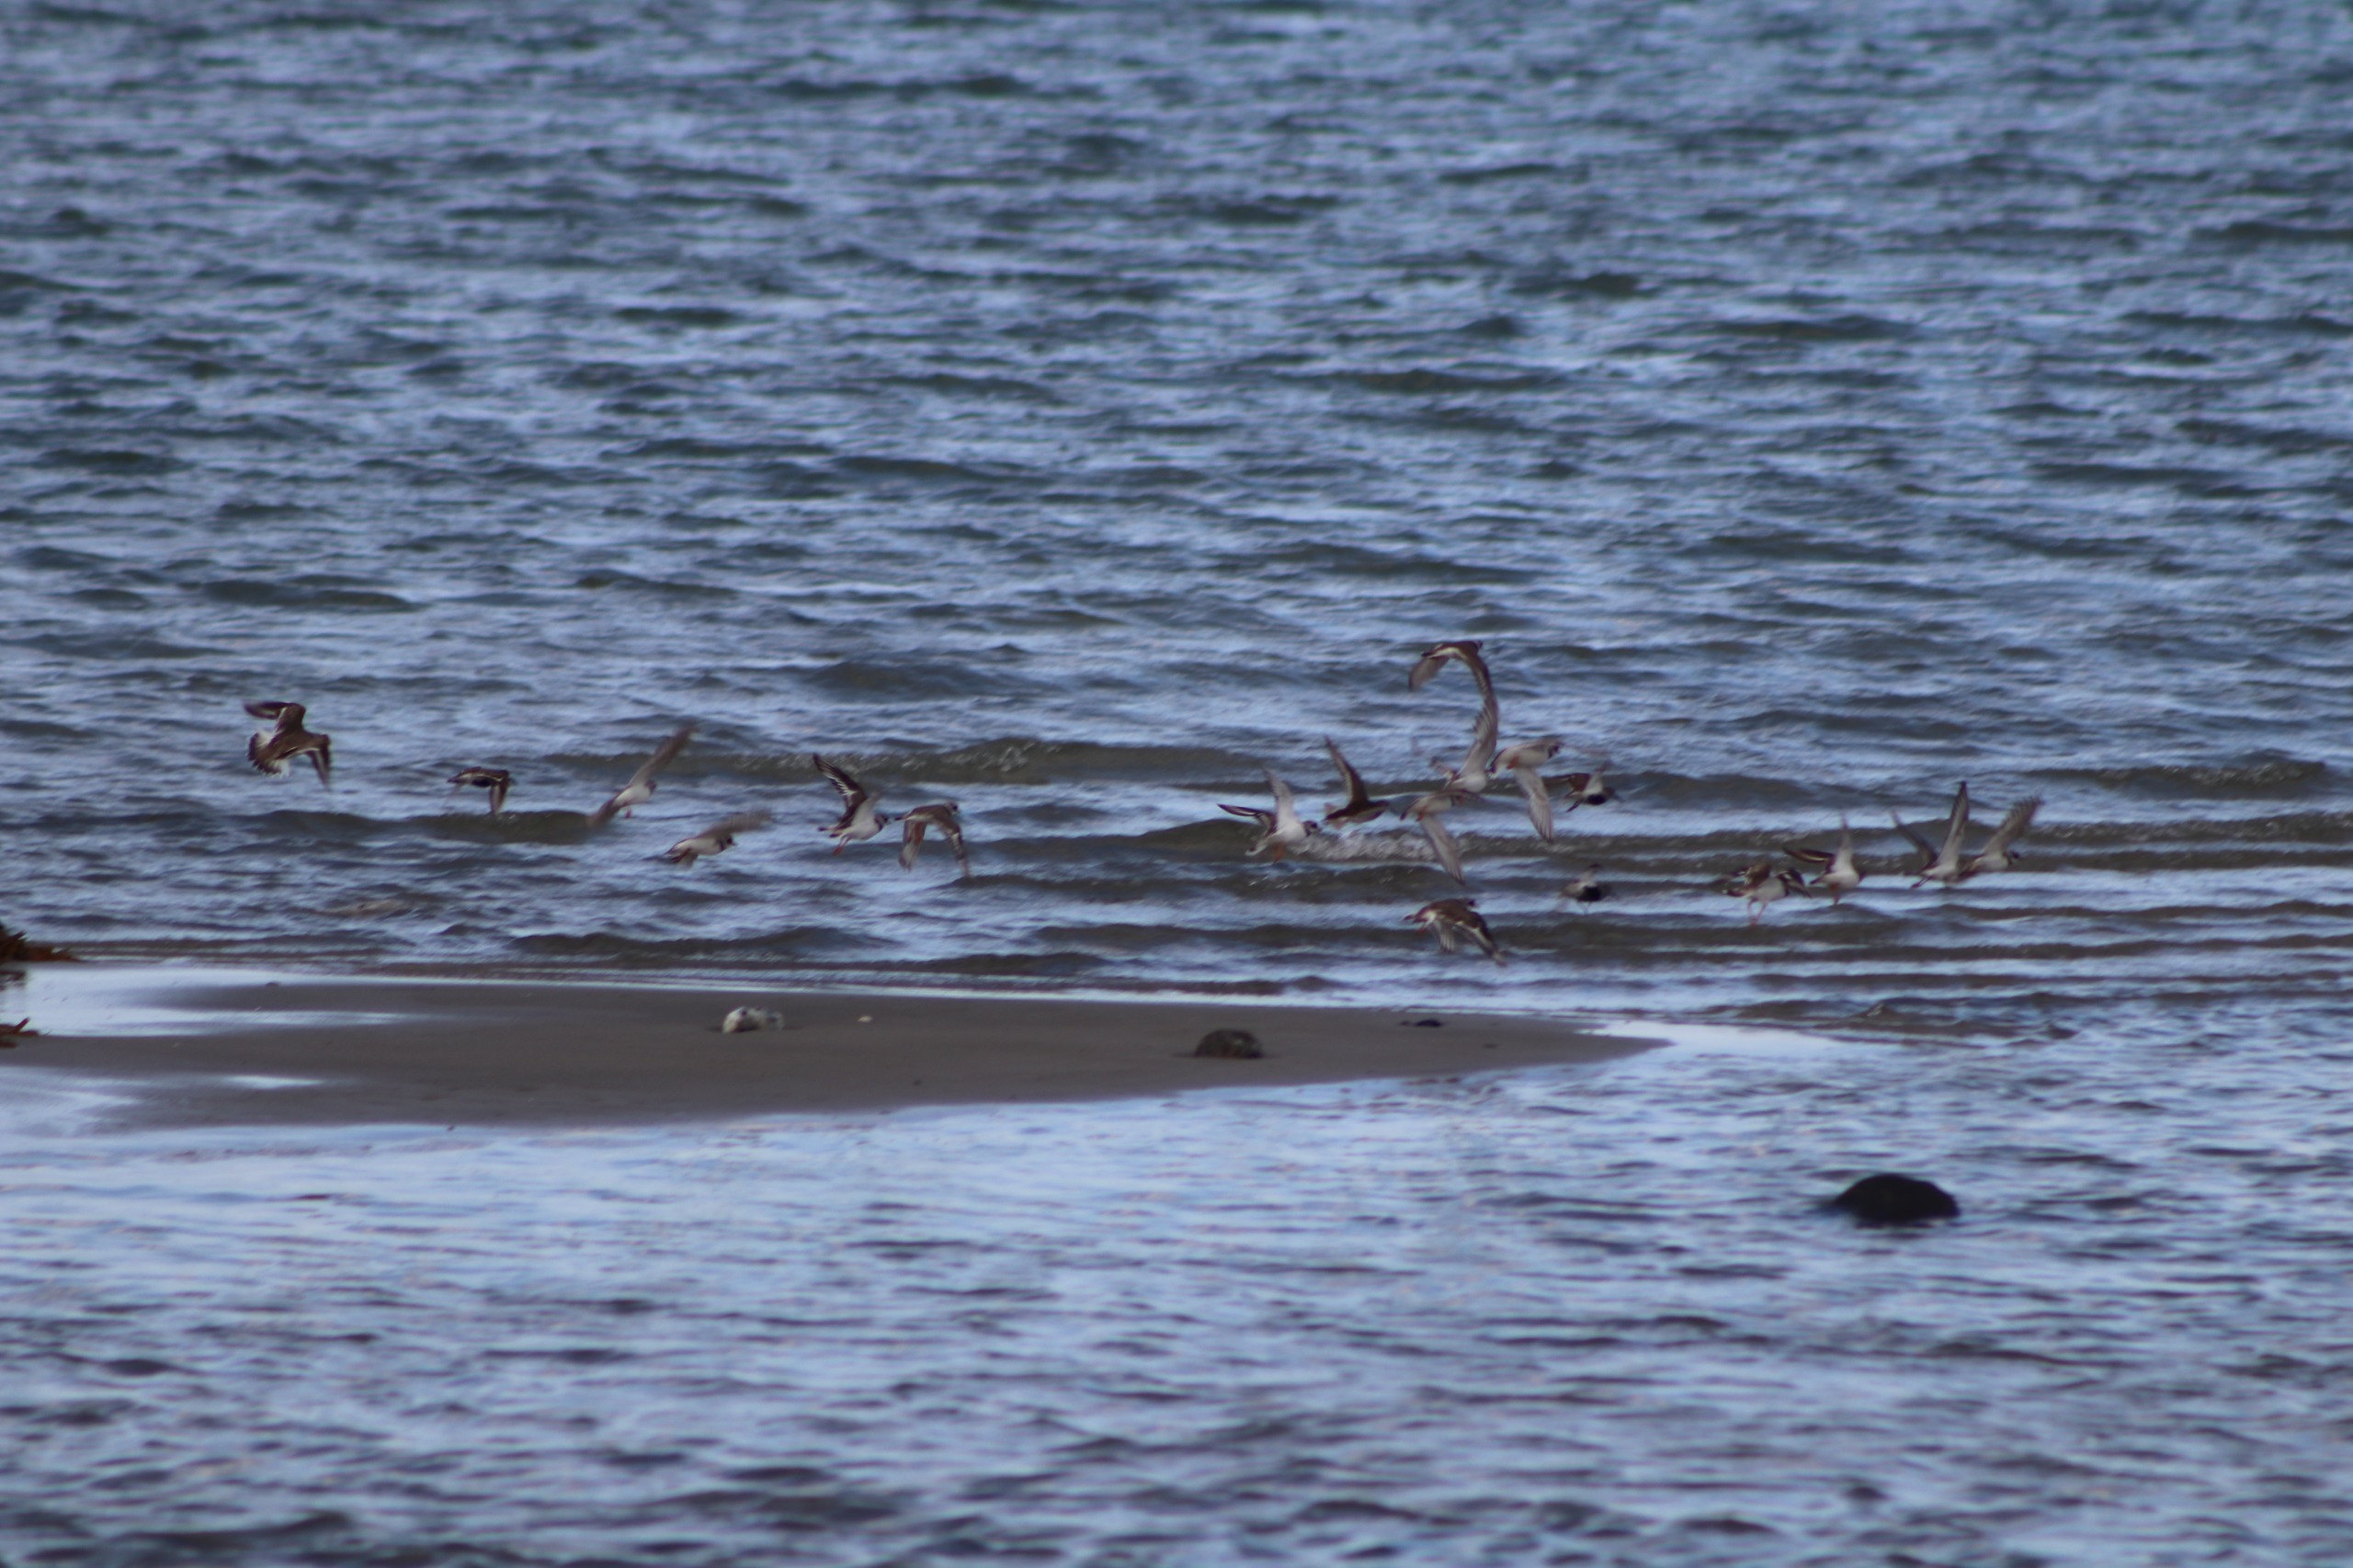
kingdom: Animalia
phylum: Chordata
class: Aves
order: Charadriiformes
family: Charadriidae
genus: Charadrius
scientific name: Charadrius hiaticula
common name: Stor præstekrave
